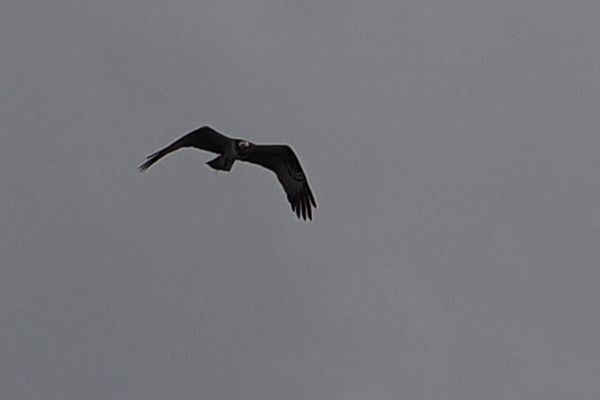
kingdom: Animalia
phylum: Chordata
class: Aves
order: Accipitriformes
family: Pandionidae
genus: Pandion
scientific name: Pandion haliaetus
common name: Fiskeørn
